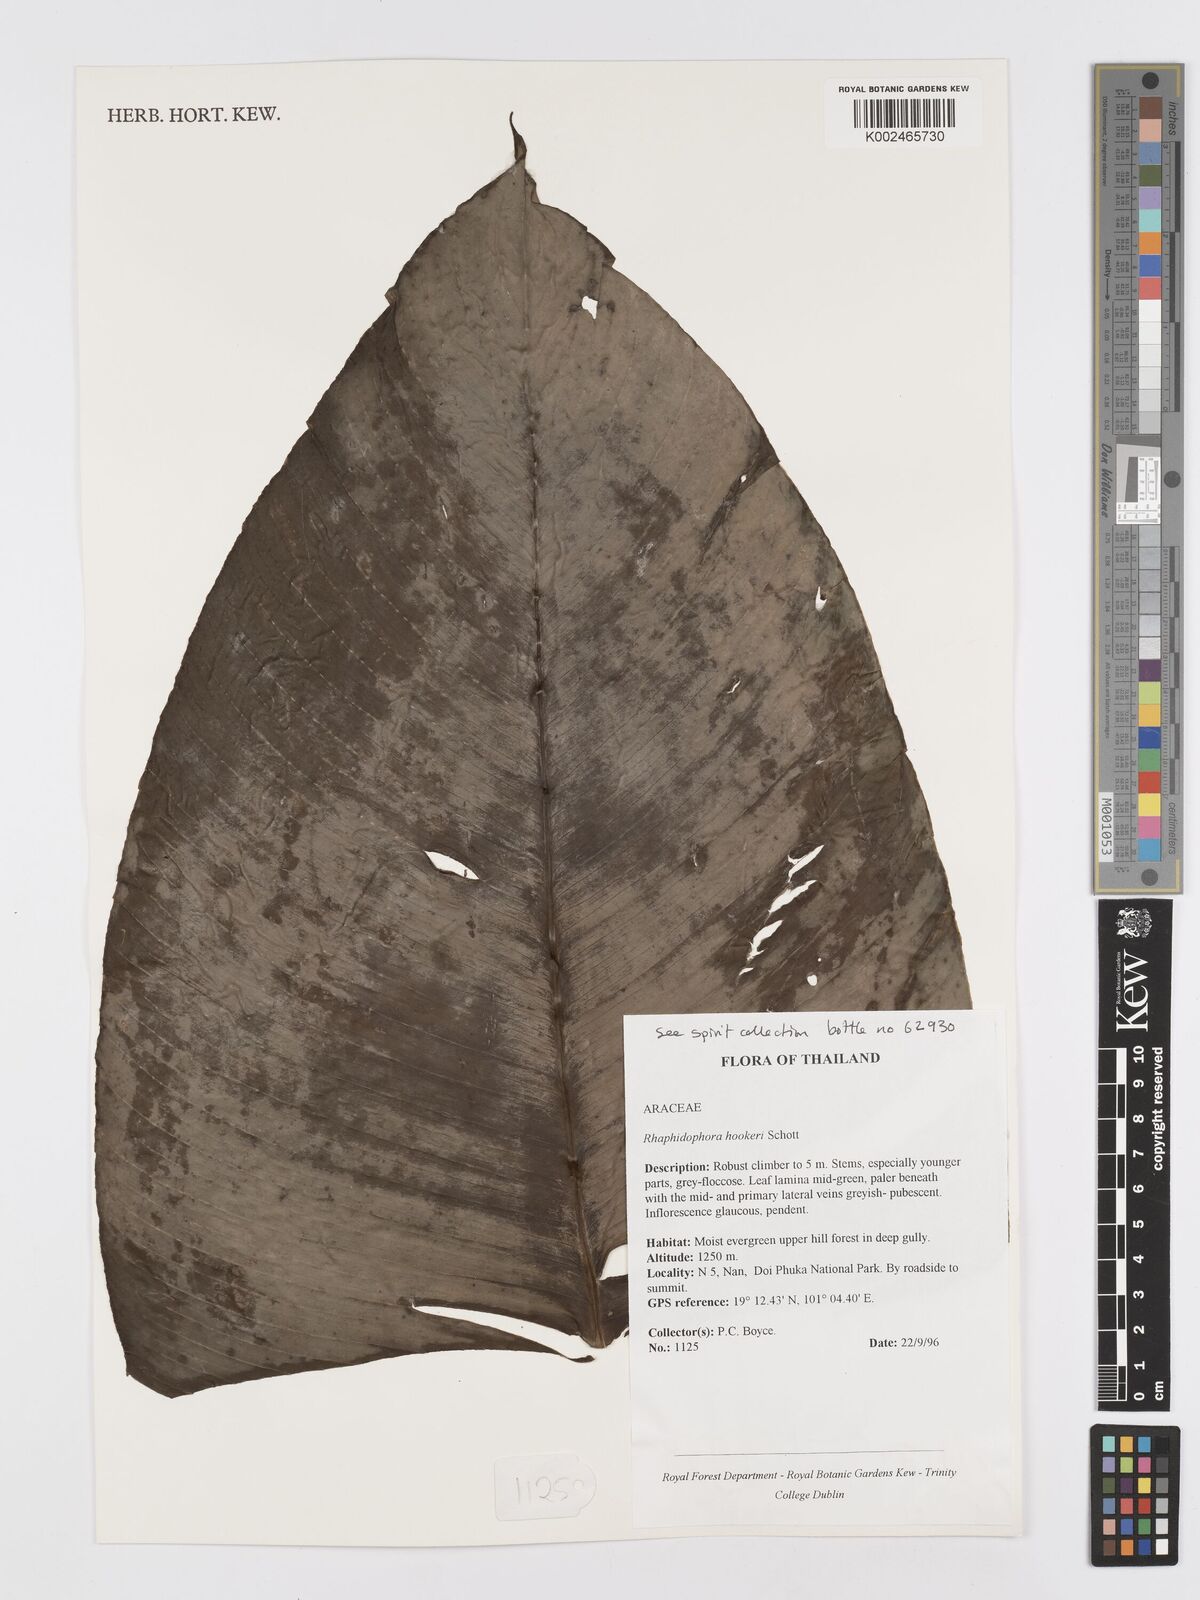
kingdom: Plantae
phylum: Tracheophyta
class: Liliopsida
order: Alismatales
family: Araceae
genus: Rhaphidophora
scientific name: Rhaphidophora hookeri
